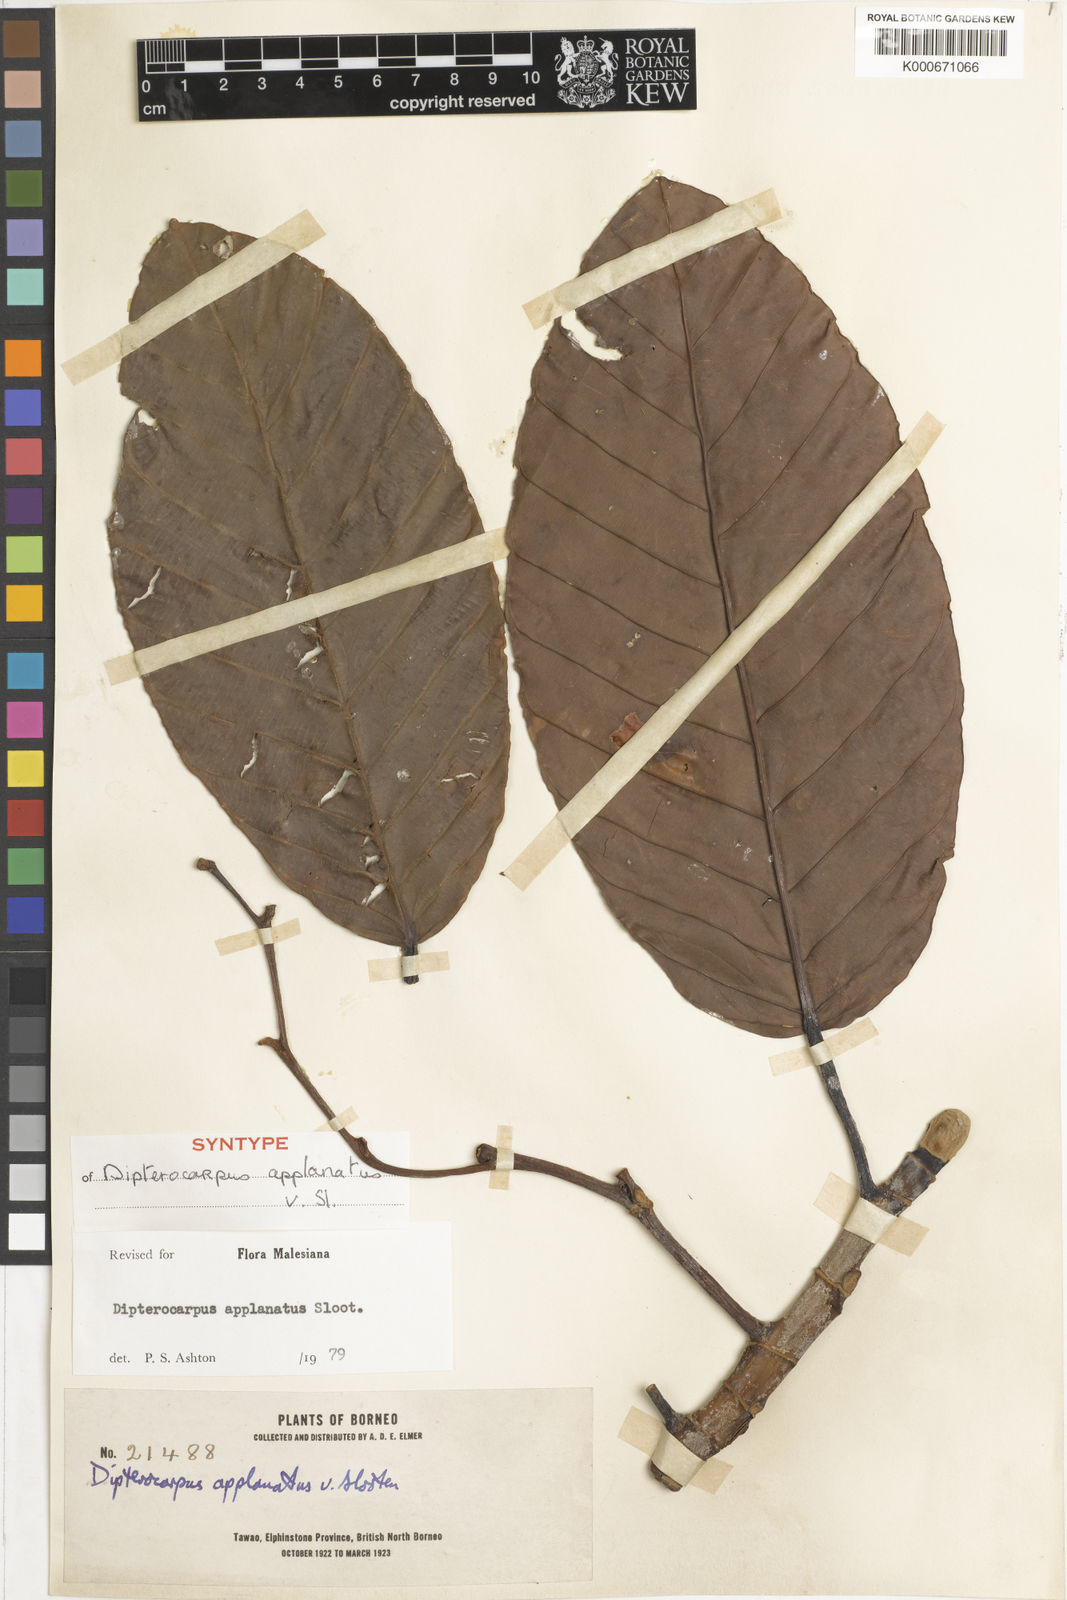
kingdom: Plantae
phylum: Tracheophyta
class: Magnoliopsida
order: Malvales
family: Dipterocarpaceae
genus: Dipterocarpus
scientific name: Dipterocarpus applanatus
